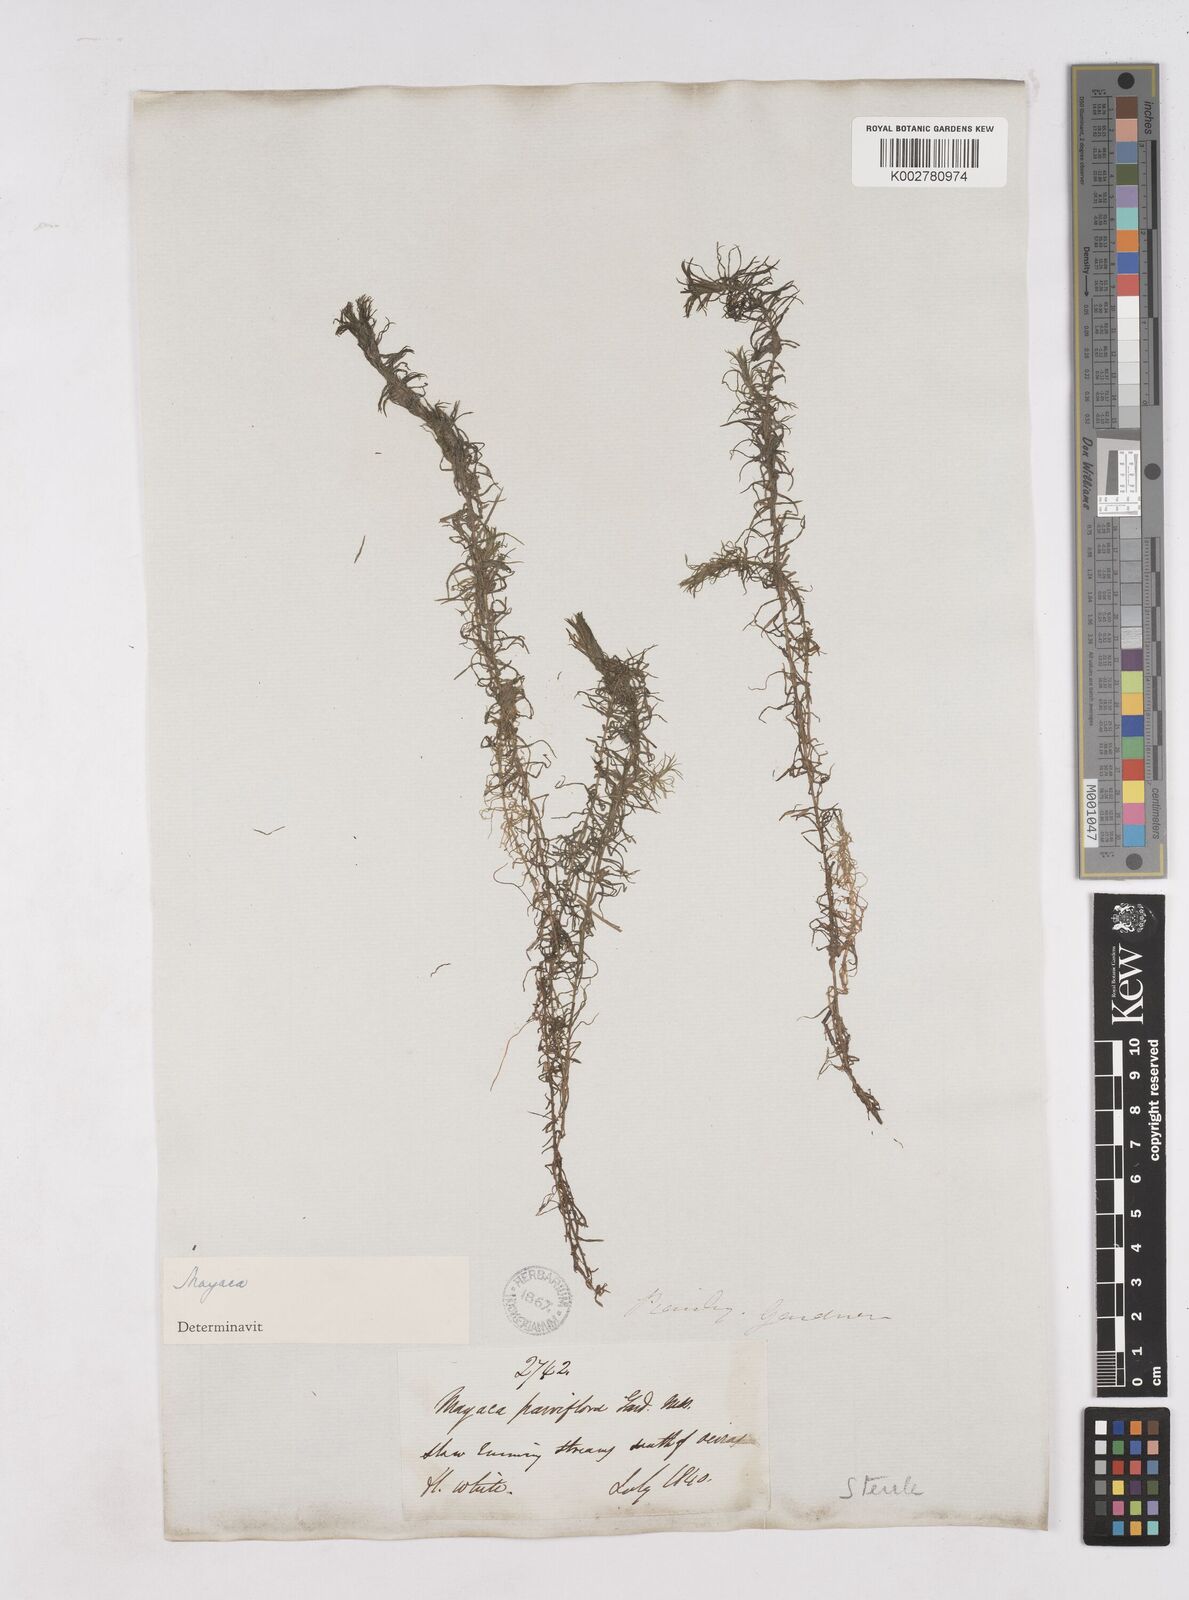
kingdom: Plantae
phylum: Tracheophyta
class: Liliopsida
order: Poales
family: Mayacaceae
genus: Mayaca
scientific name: Mayaca
